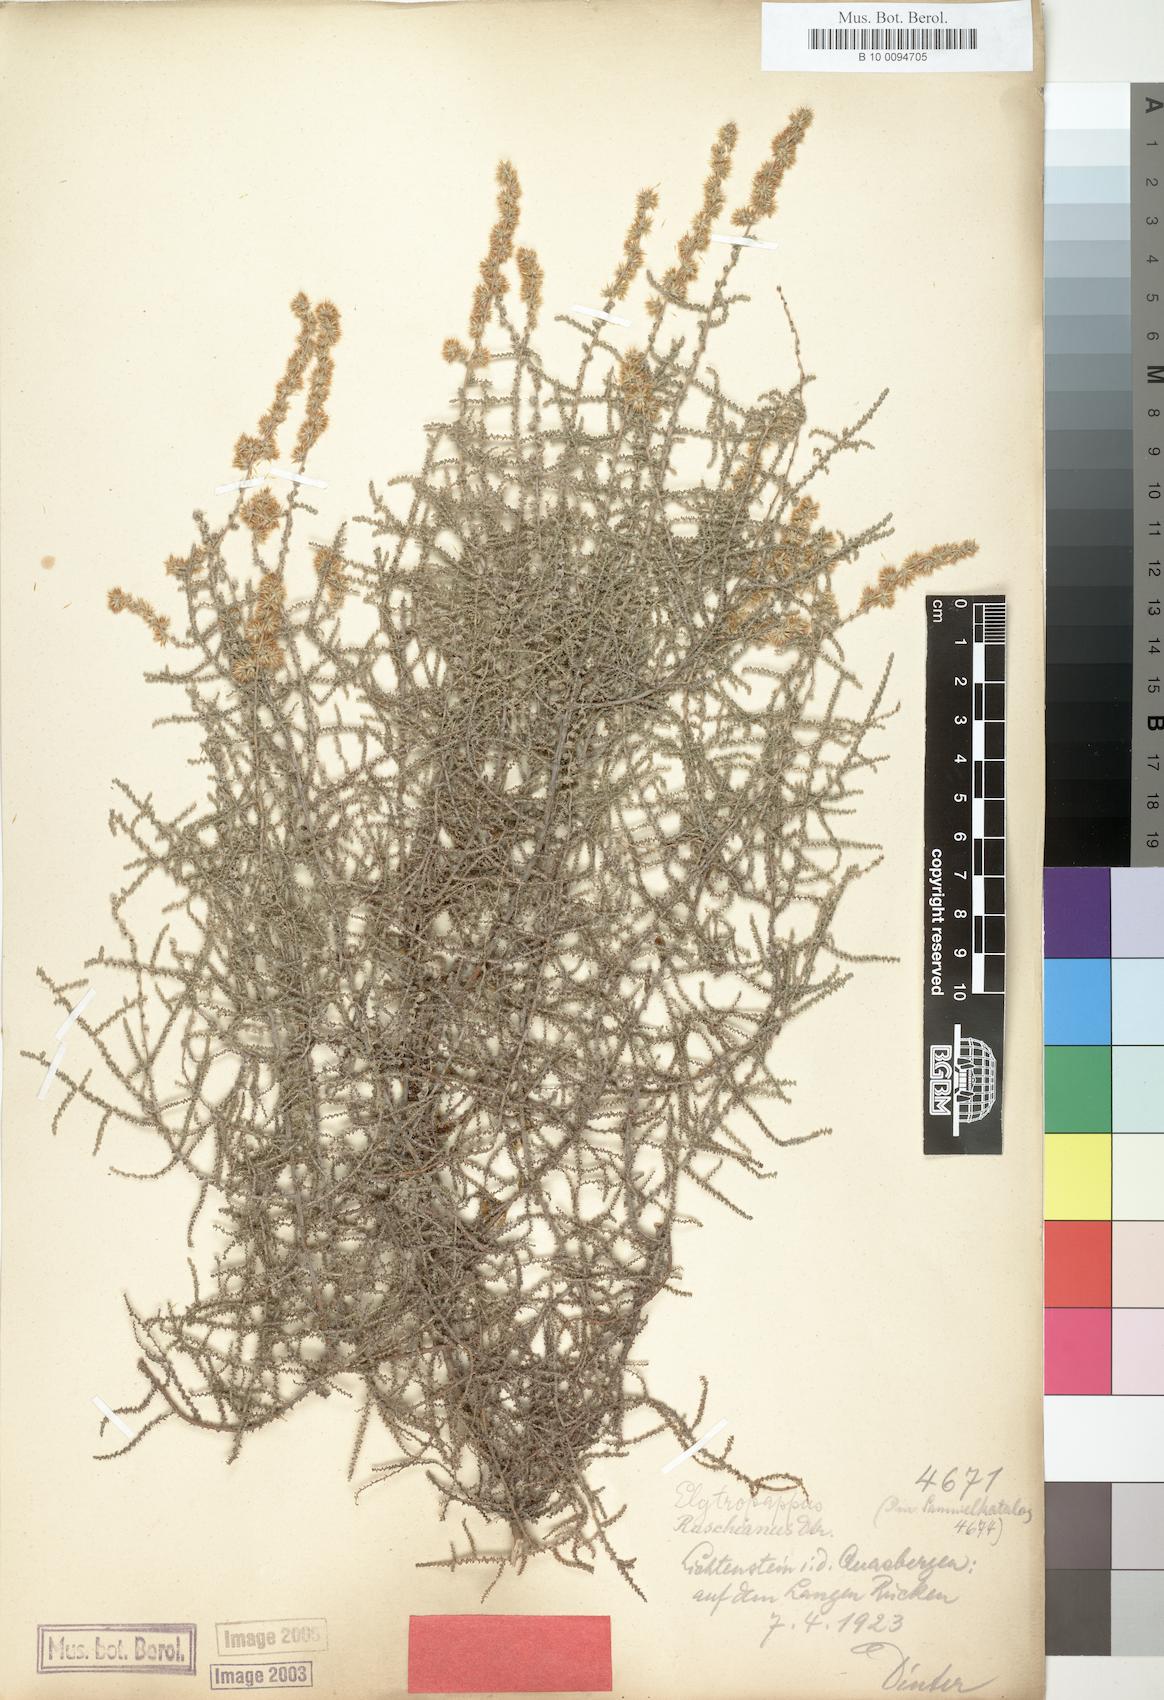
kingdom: Plantae
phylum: Tracheophyta
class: Magnoliopsida
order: Asterales
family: Asteraceae
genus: Seriphium
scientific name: Seriphium plumosum
